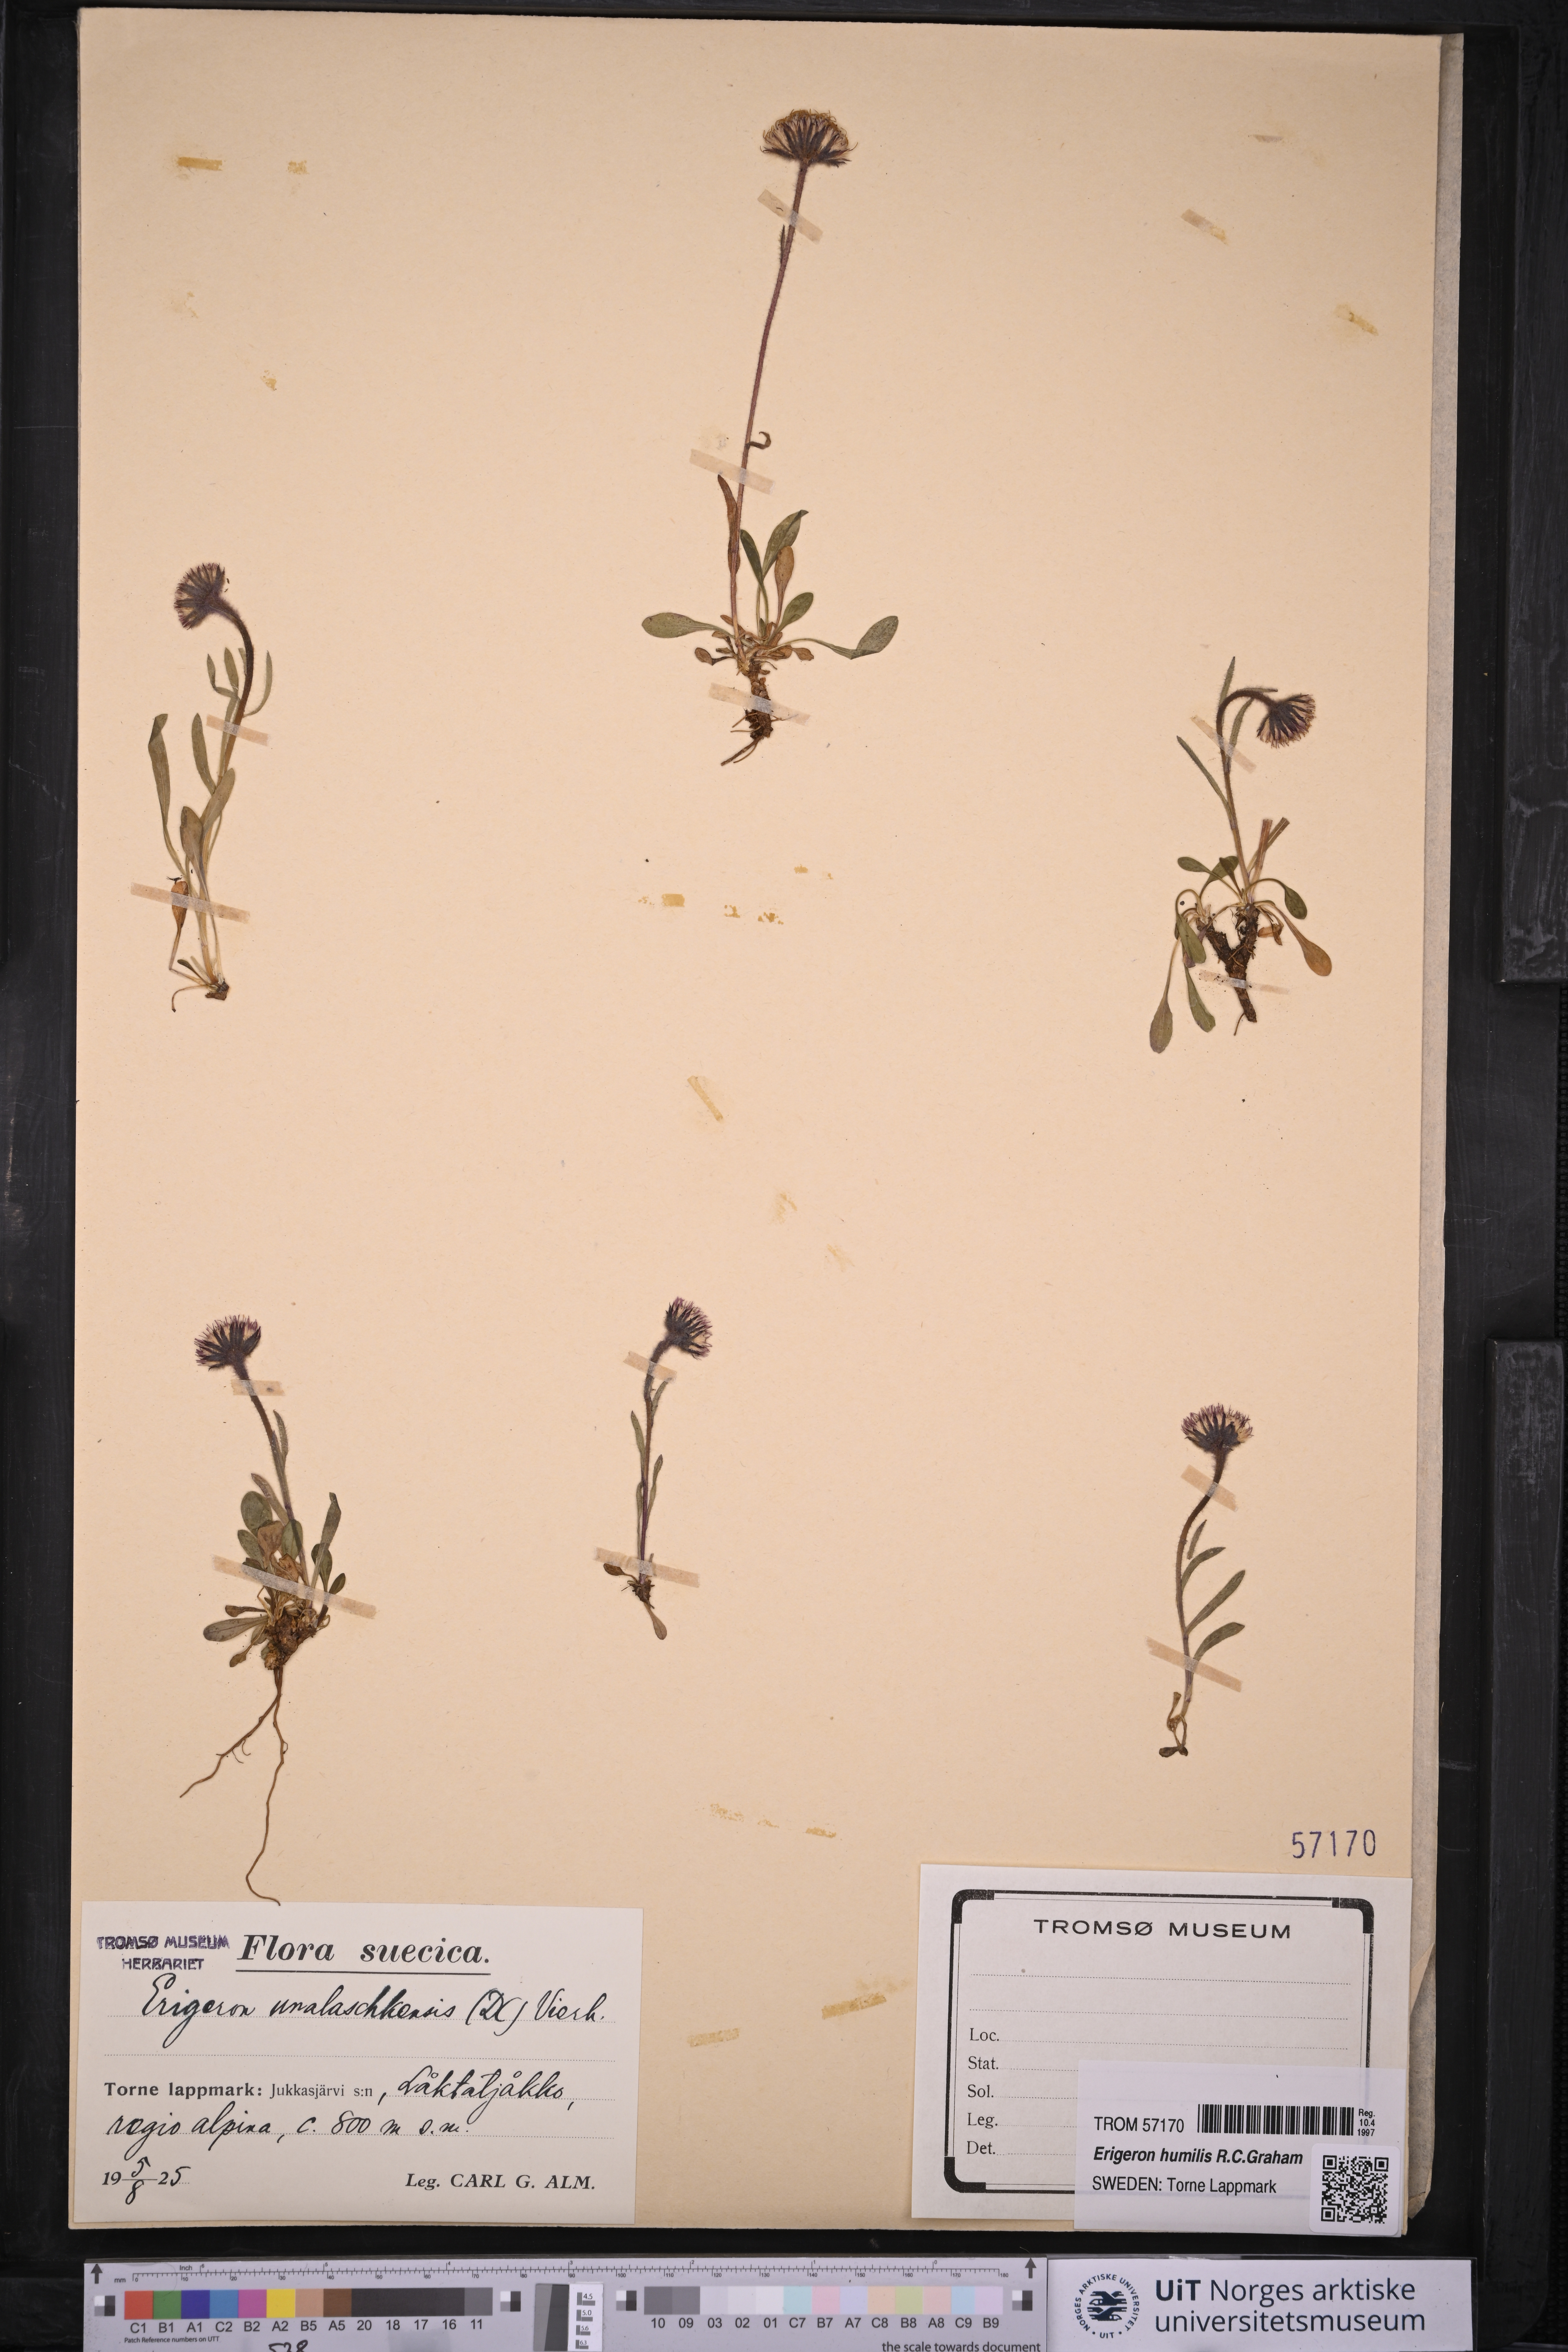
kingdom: Plantae
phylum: Tracheophyta
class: Magnoliopsida
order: Asterales
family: Asteraceae
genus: Erigeron
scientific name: Erigeron humilis
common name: Arctic-alpine fleabane
